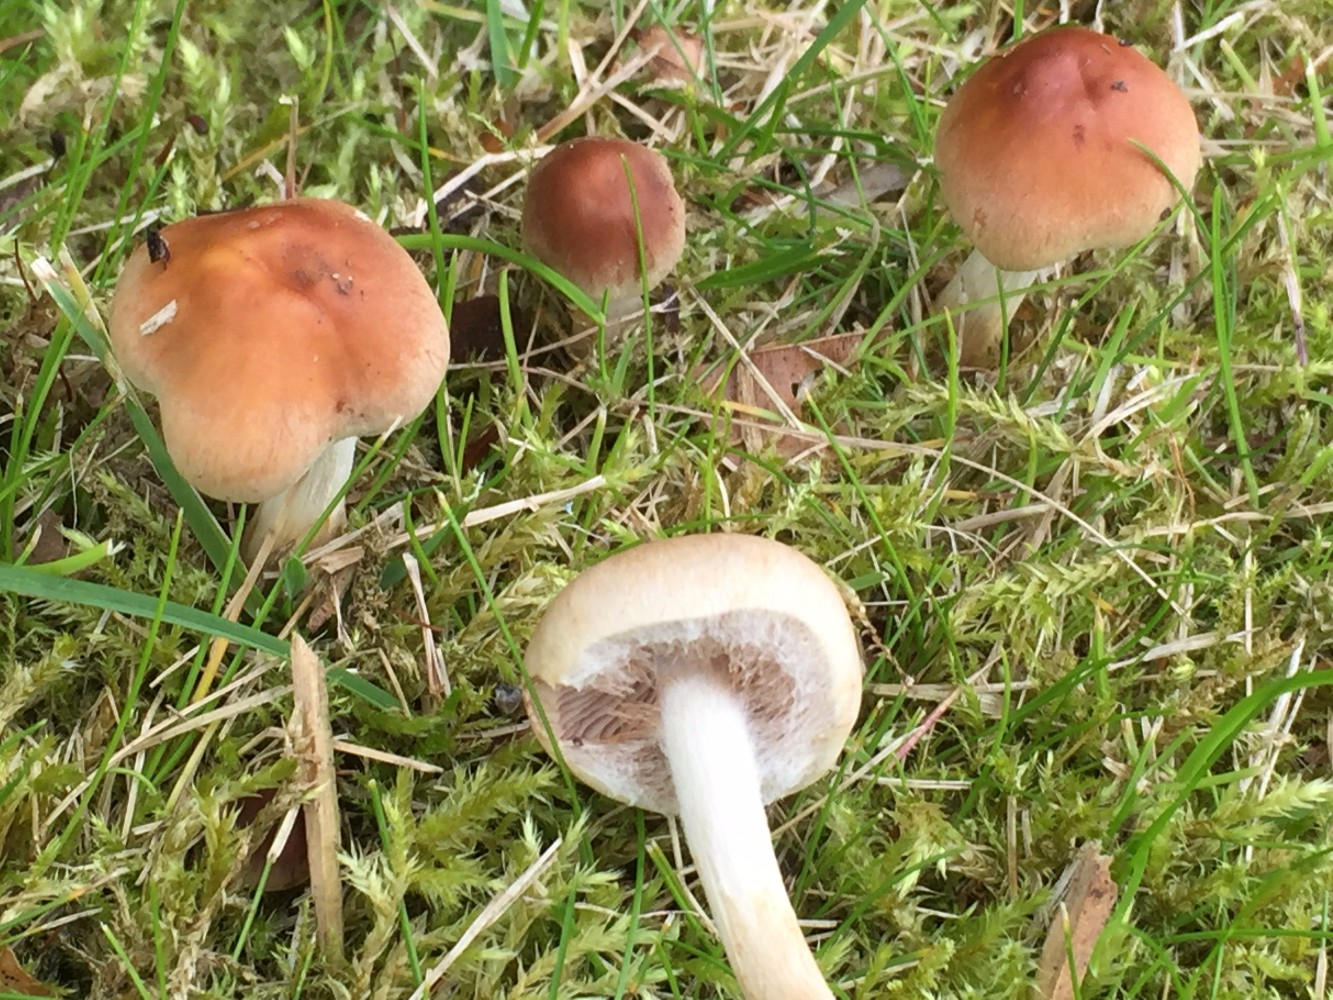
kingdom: Fungi
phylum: Basidiomycota
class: Agaricomycetes
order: Agaricales
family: Hymenogastraceae
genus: Hebeloma
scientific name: Hebeloma mesophaeum
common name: lerbrun tåreblad
